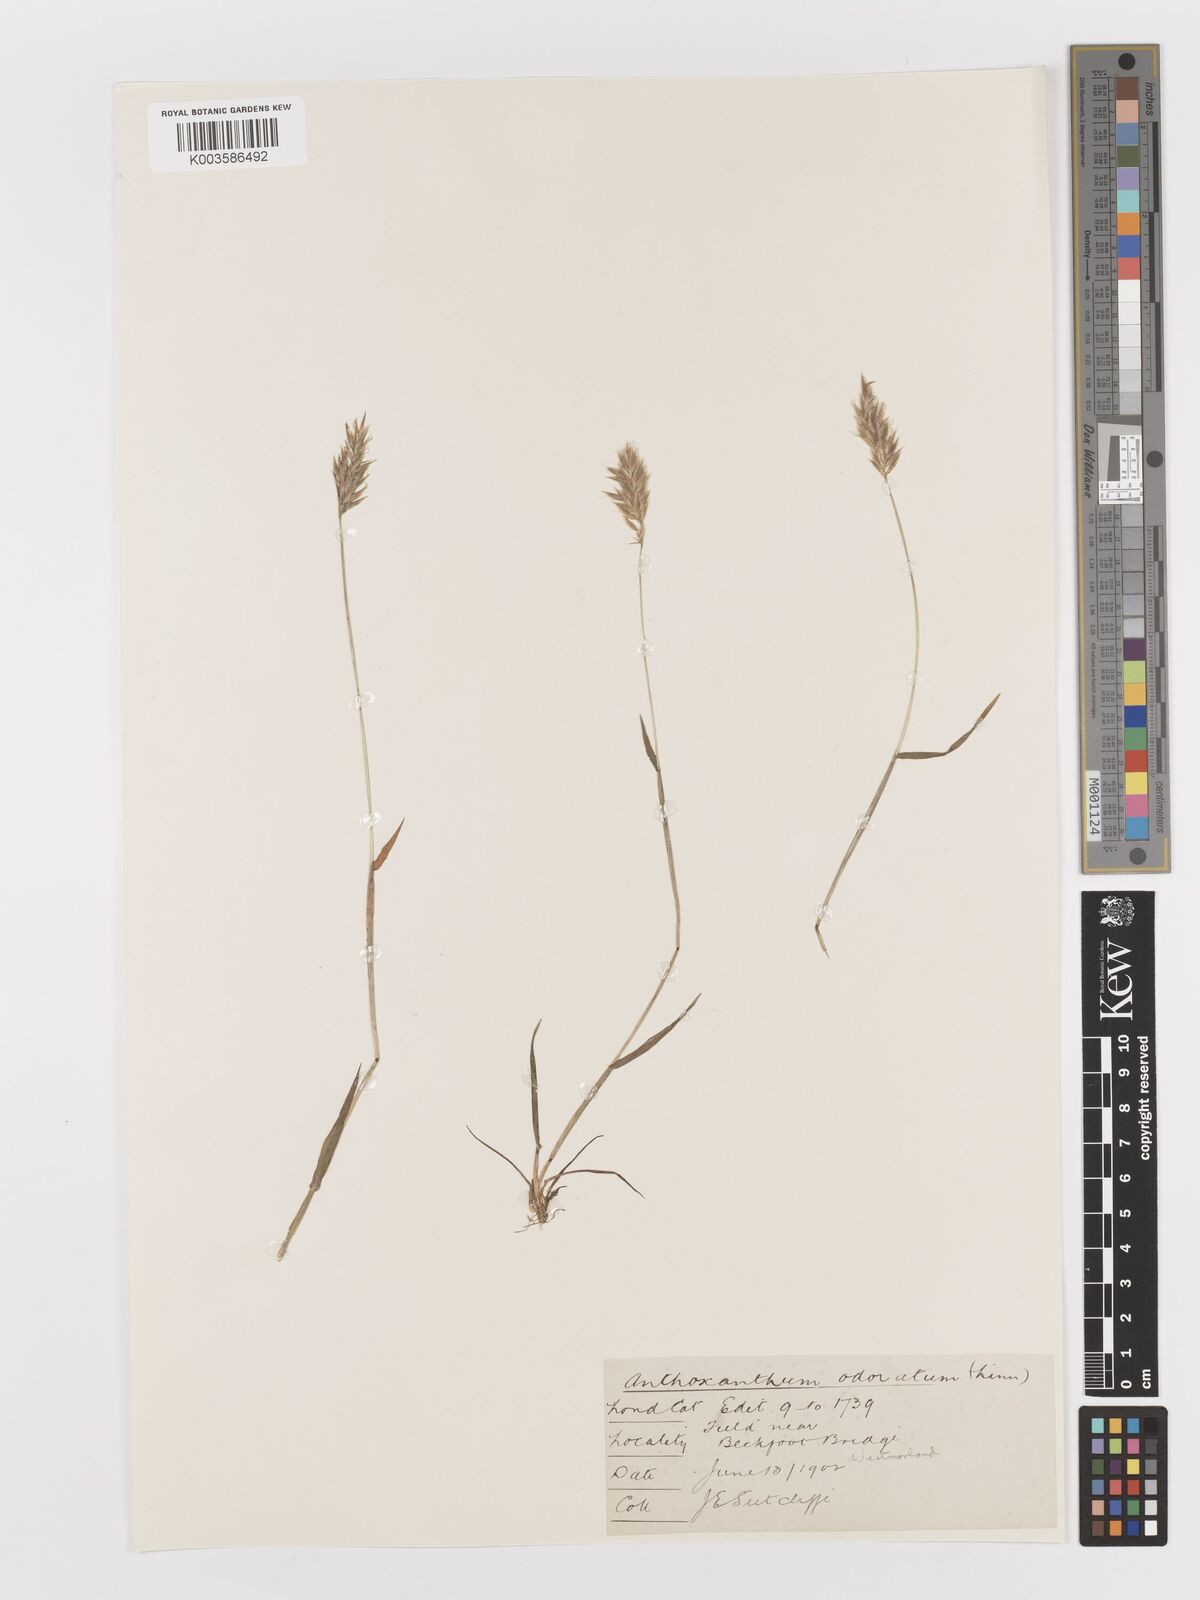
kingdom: Plantae
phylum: Tracheophyta
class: Liliopsida
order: Poales
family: Poaceae
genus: Anthoxanthum
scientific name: Anthoxanthum odoratum
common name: Sweet vernalgrass
